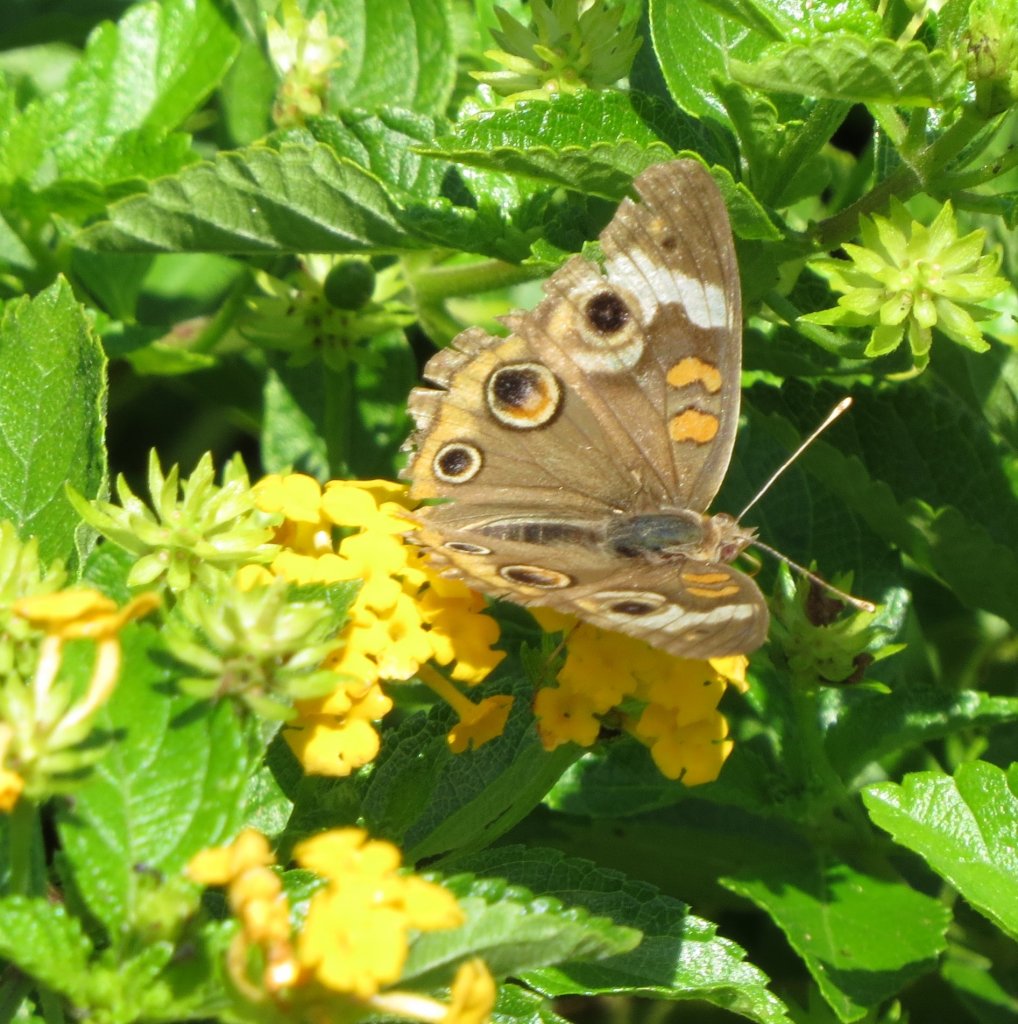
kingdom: Animalia
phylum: Arthropoda
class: Insecta
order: Lepidoptera
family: Nymphalidae
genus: Junonia
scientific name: Junonia coenia
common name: Common Buckeye
